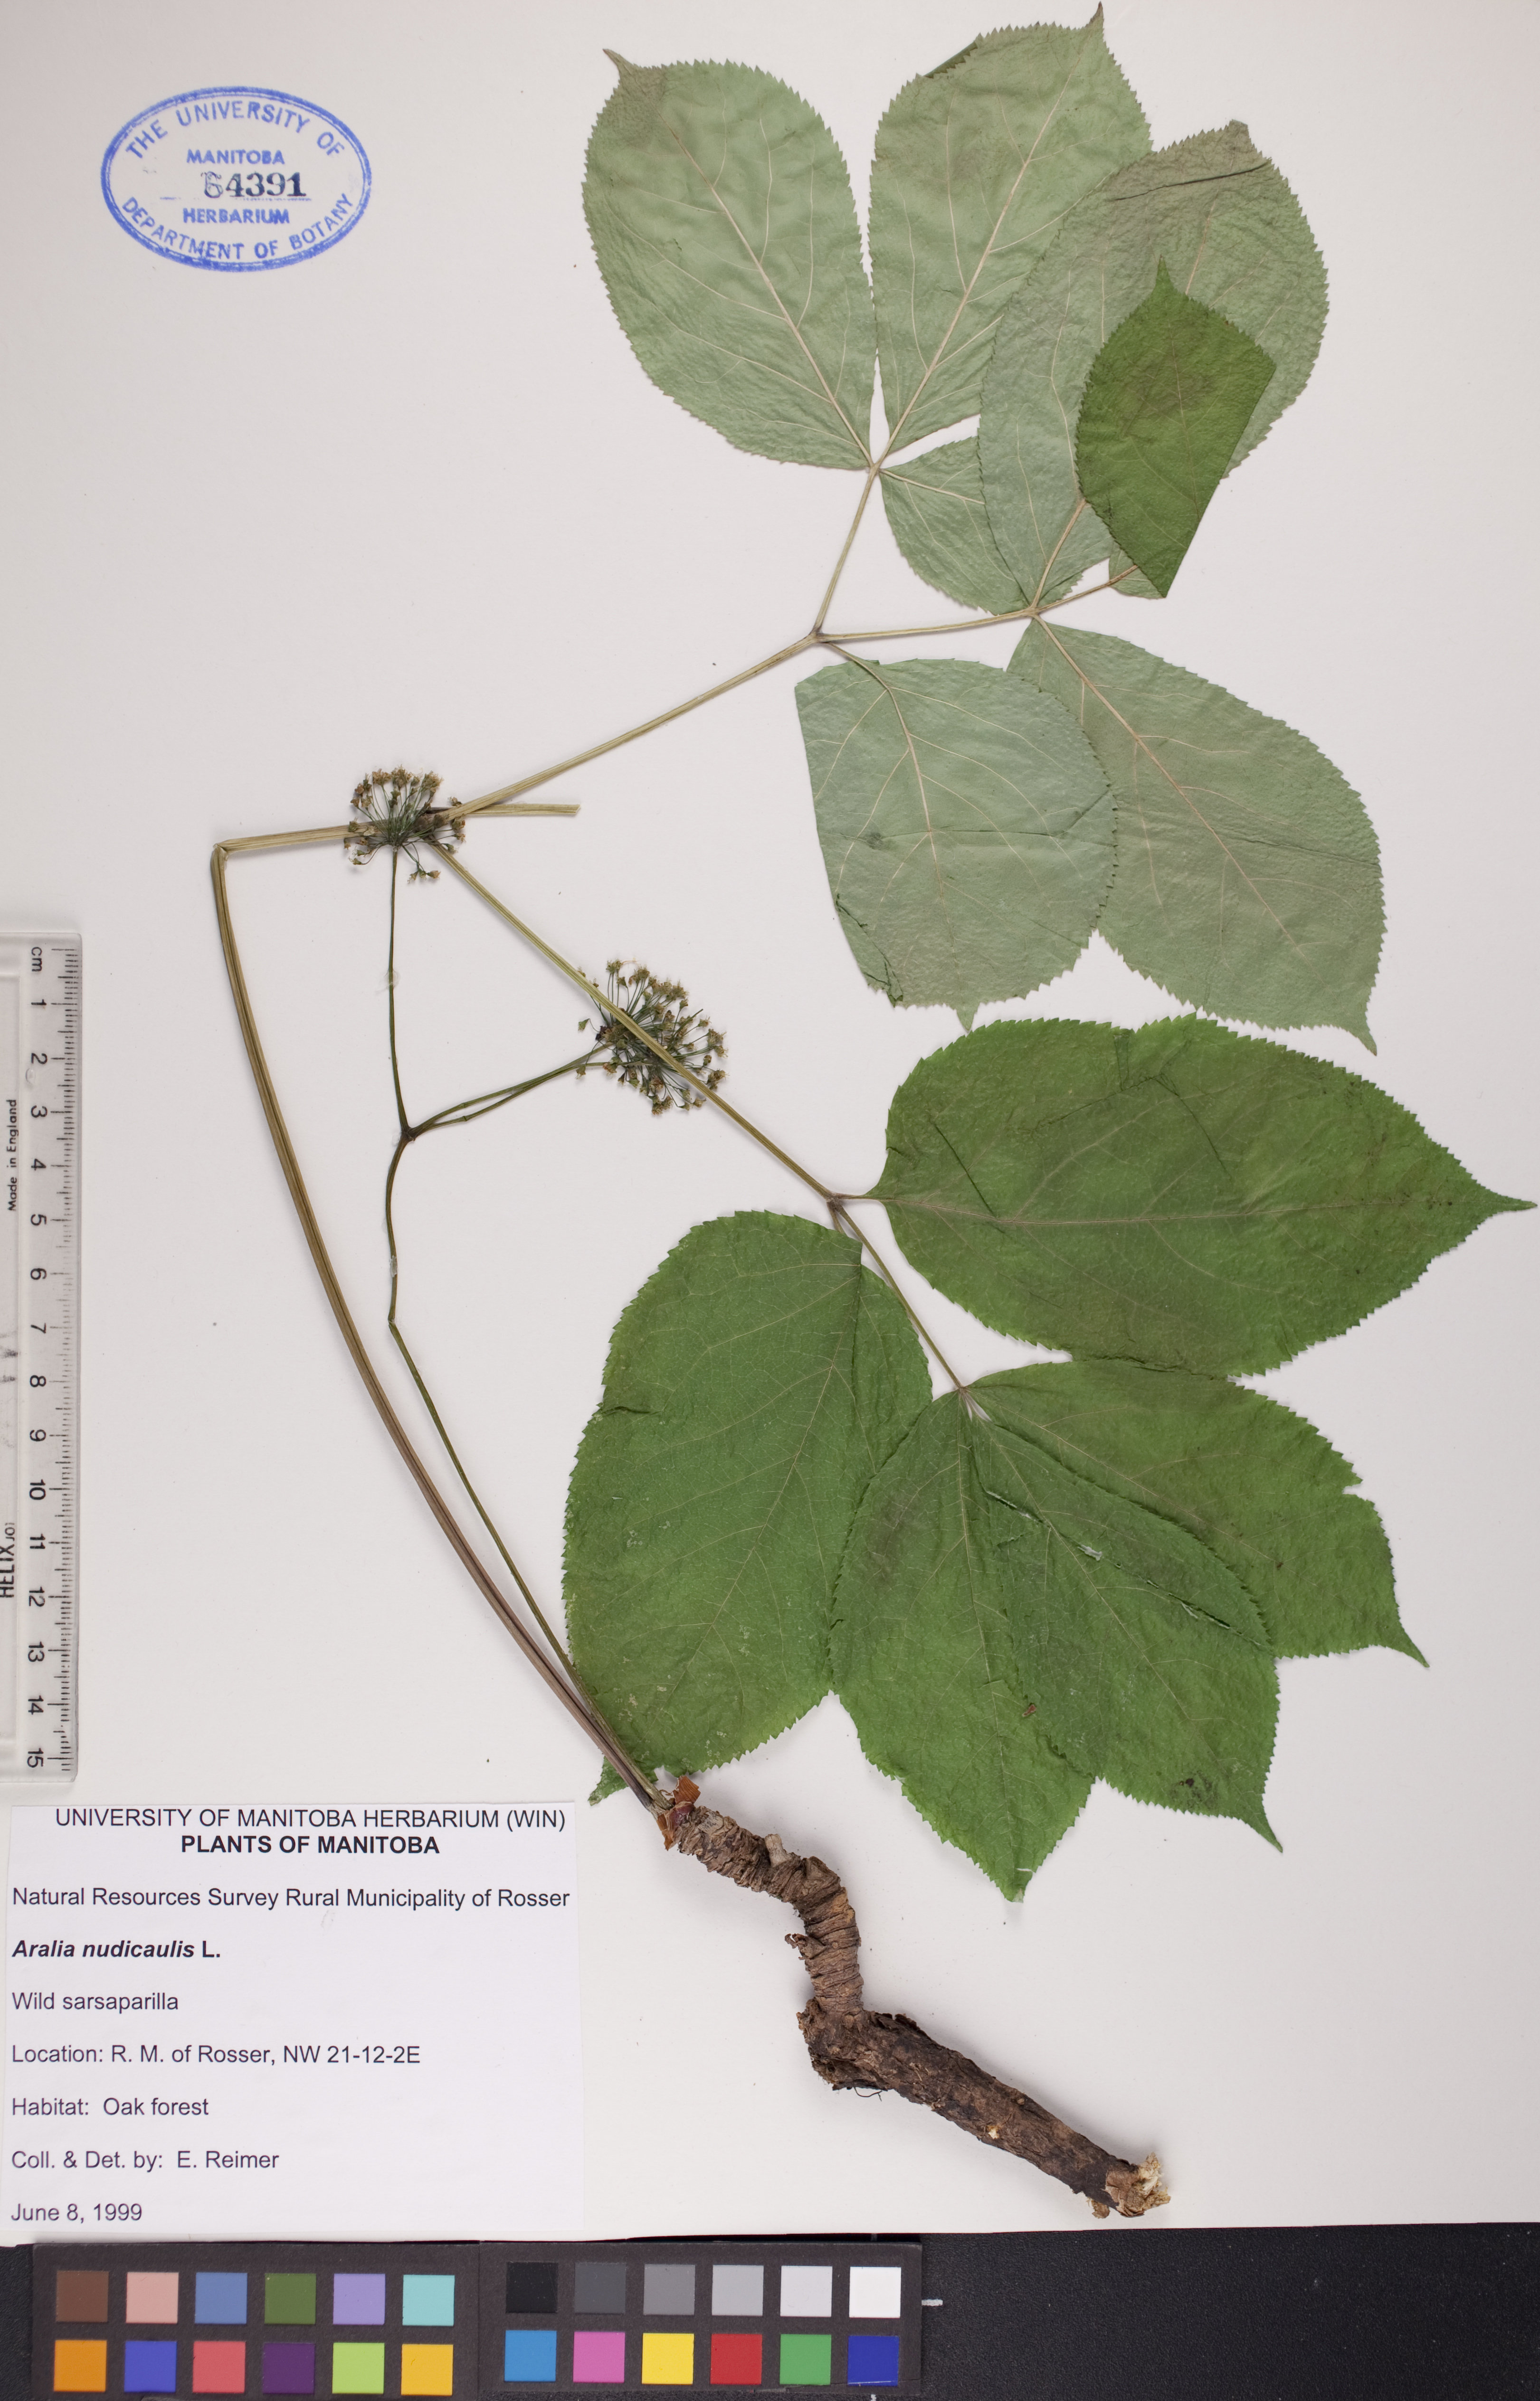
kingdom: Plantae
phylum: Tracheophyta
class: Magnoliopsida
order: Apiales
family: Araliaceae
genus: Aralia
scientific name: Aralia nudicaulis
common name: Wild sarsaparilla
